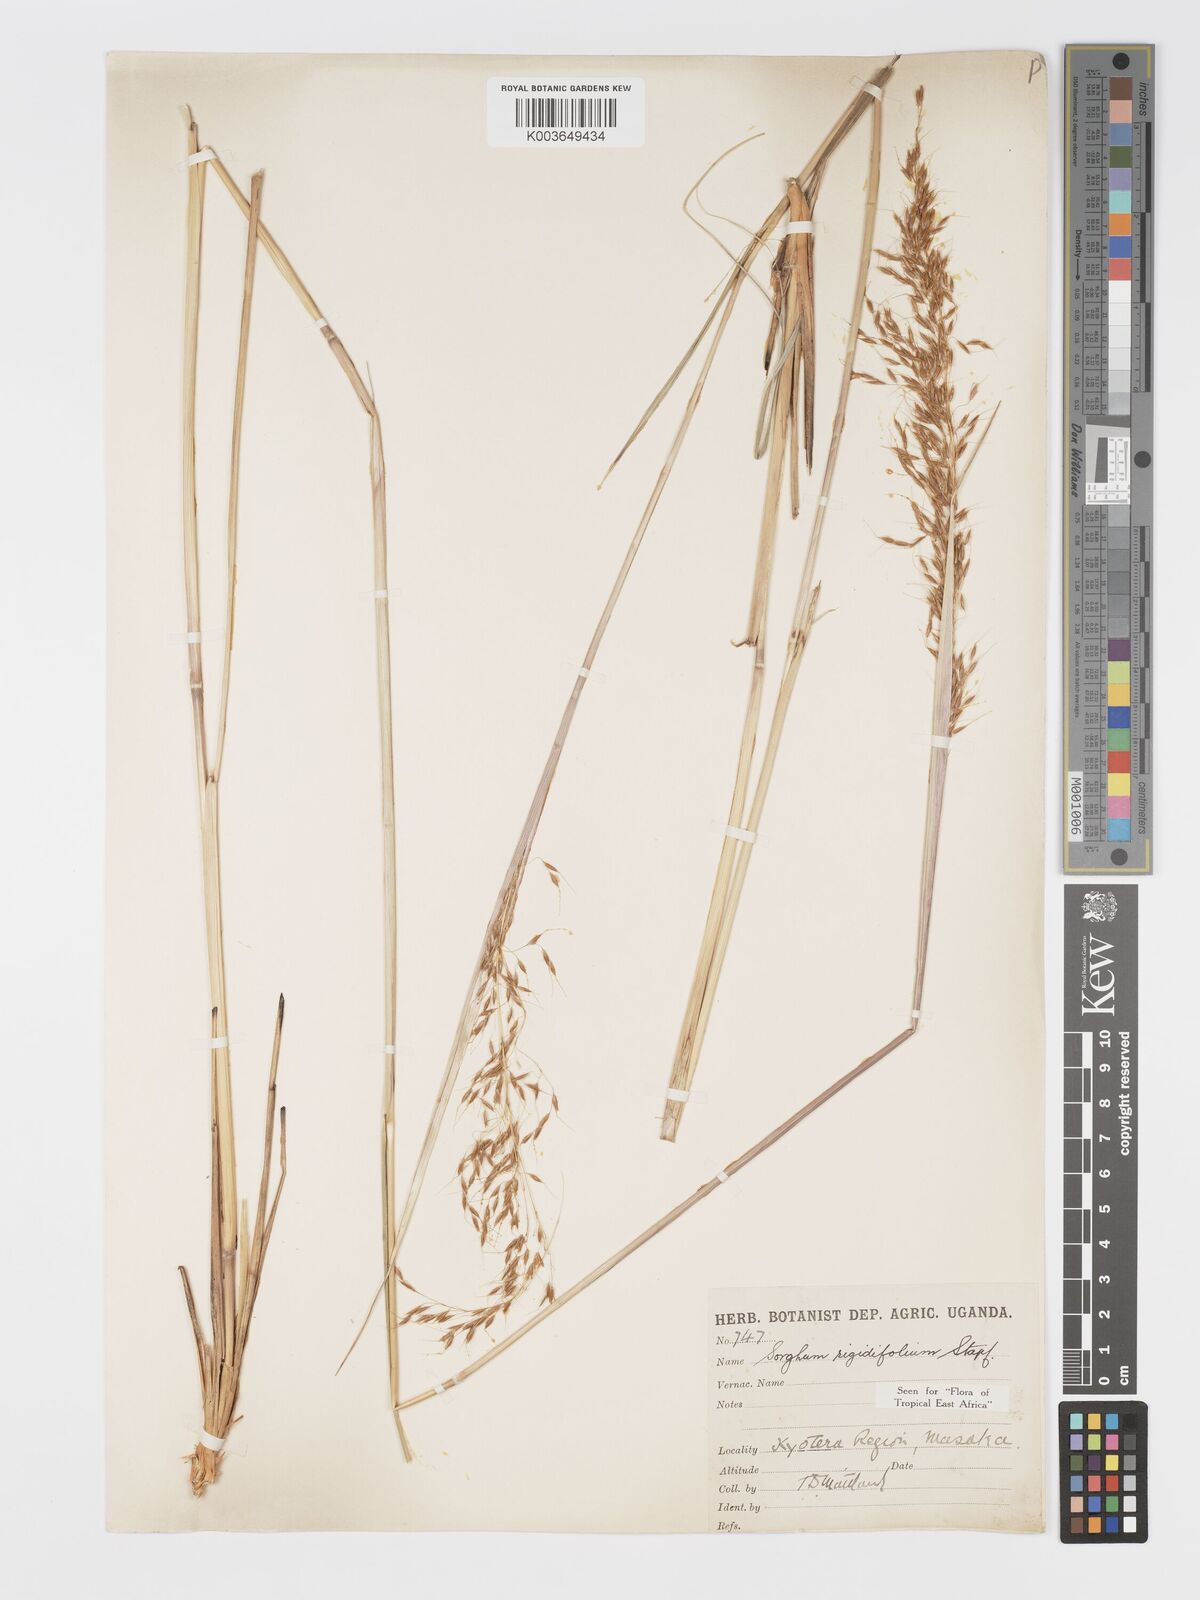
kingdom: Plantae
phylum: Tracheophyta
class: Liliopsida
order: Poales
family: Poaceae
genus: Sorghastrum
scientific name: Sorghastrum stipoides
